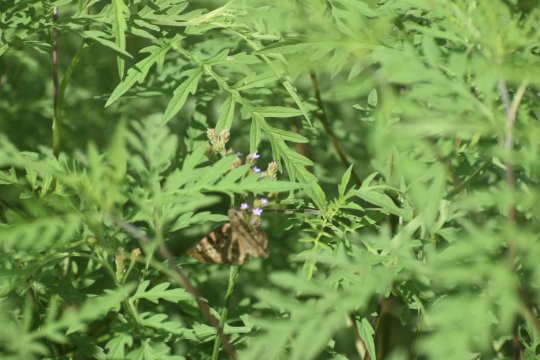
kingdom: Animalia
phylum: Arthropoda
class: Insecta
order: Lepidoptera
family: Hesperiidae
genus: Gesta
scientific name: Gesta
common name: Horace's Duskywing
